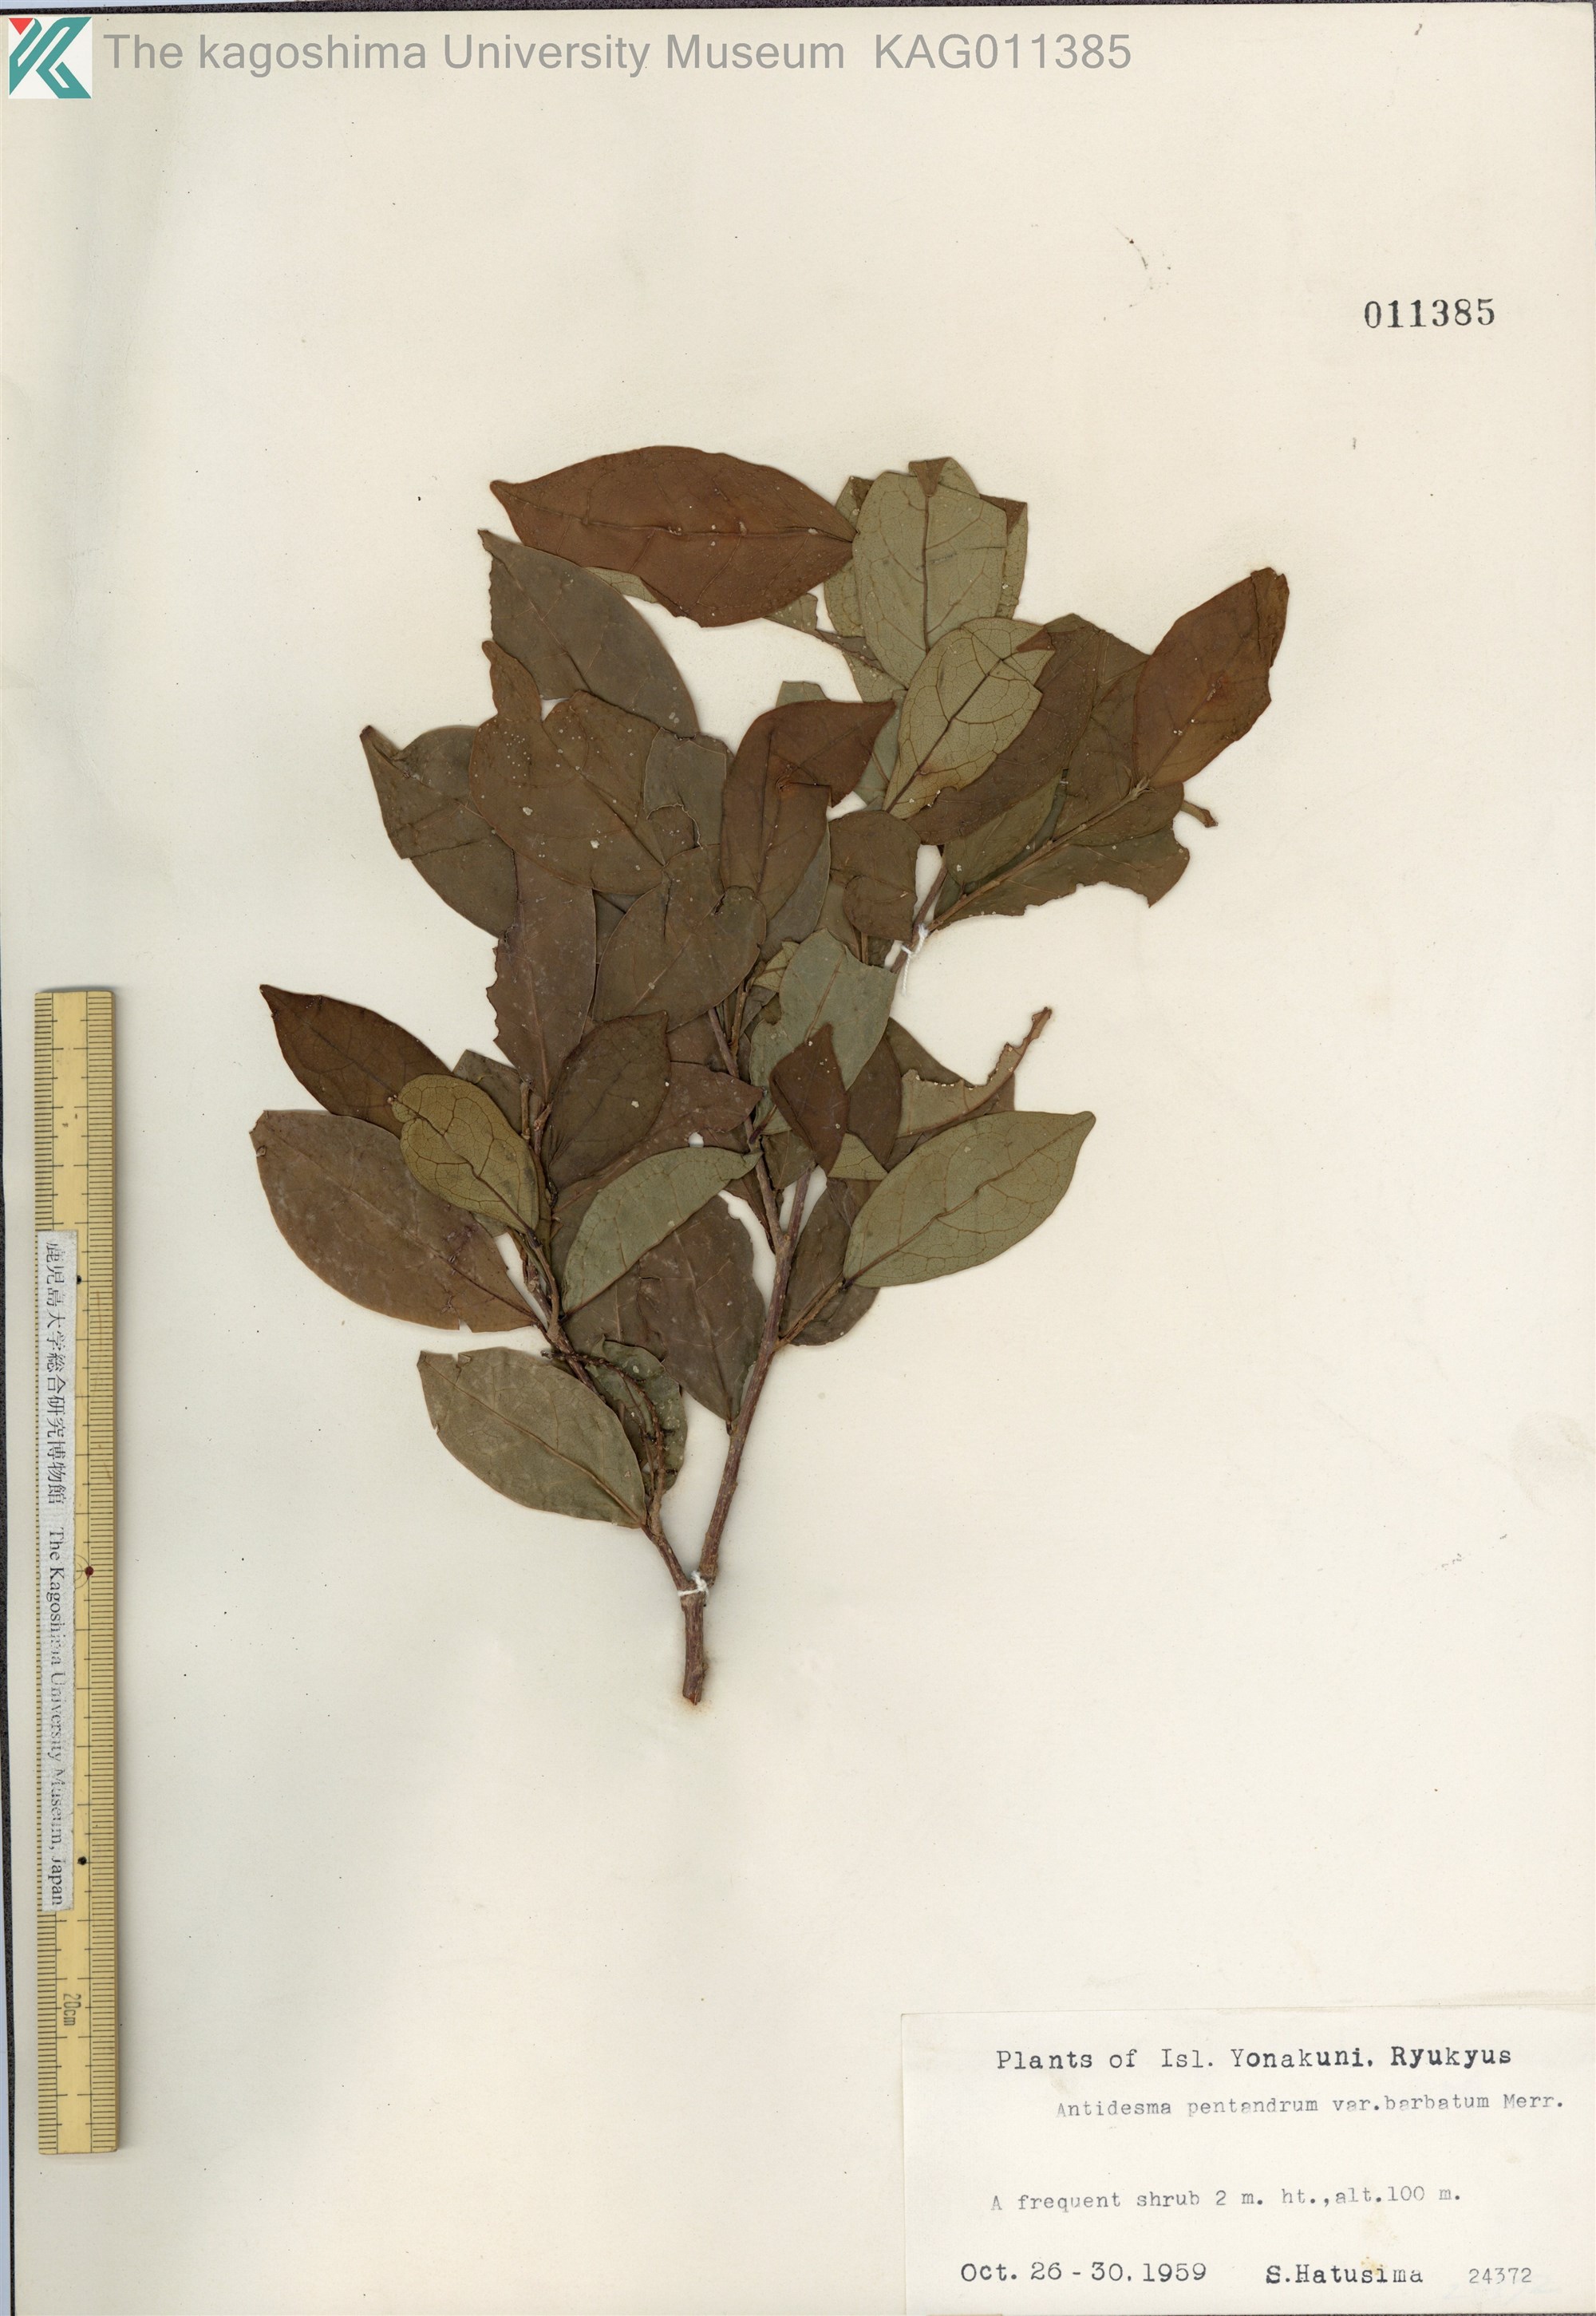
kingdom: Plantae
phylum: Tracheophyta
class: Magnoliopsida
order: Malpighiales
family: Phyllanthaceae
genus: Antidesma
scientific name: Antidesma montanum
